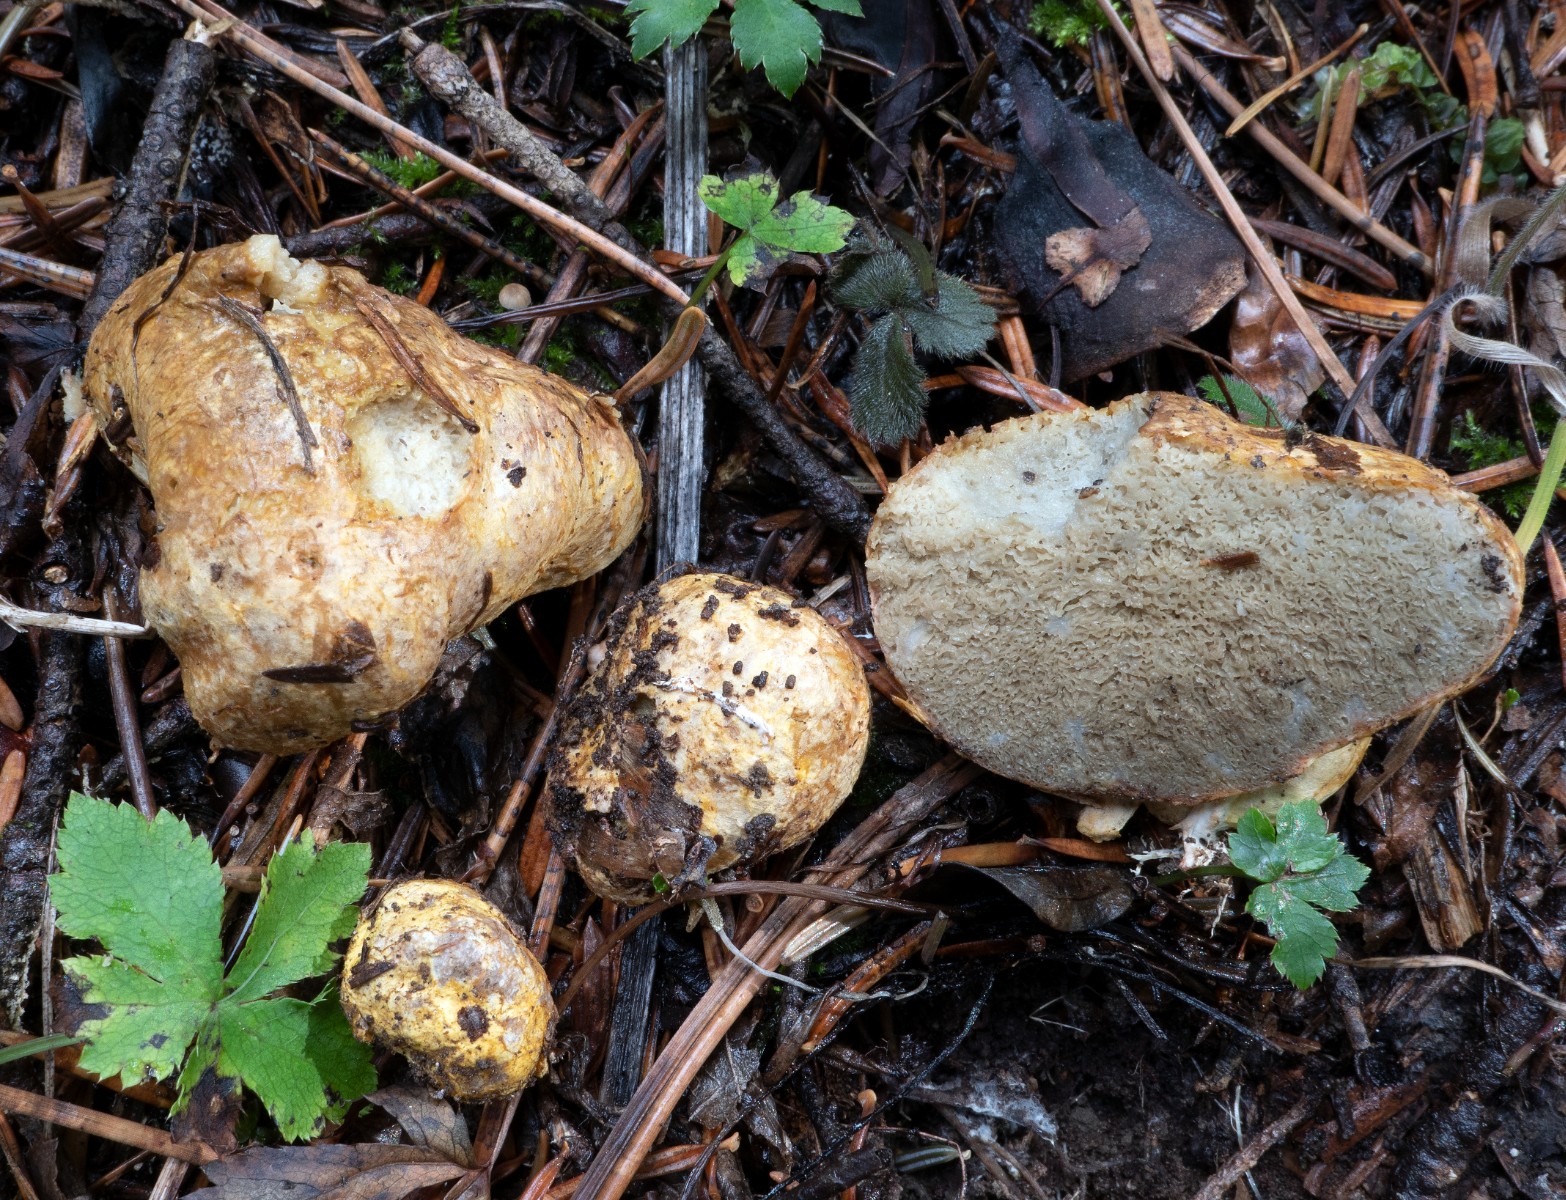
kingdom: Fungi
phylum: Basidiomycota
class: Agaricomycetes
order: Boletales
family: Rhizopogonaceae
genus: Rhizopogon
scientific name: Rhizopogon
